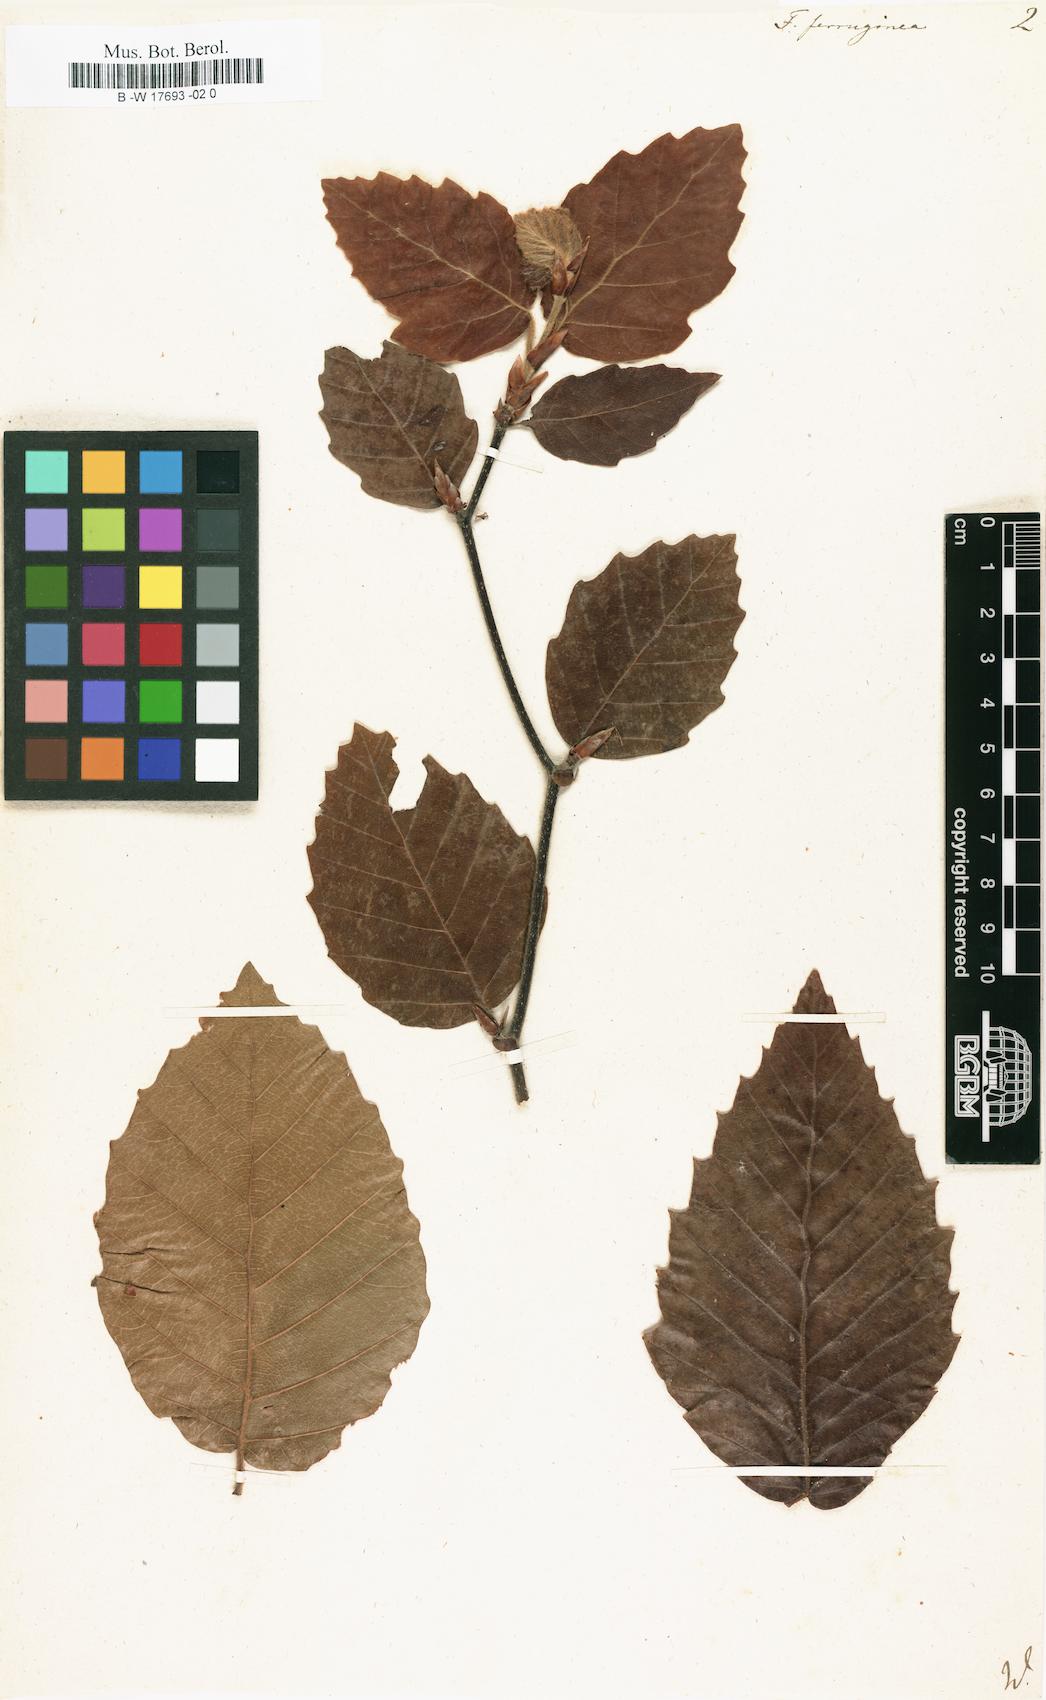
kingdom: Plantae
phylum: Tracheophyta
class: Magnoliopsida
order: Fagales
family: Fagaceae
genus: Fagus
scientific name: Fagus grandifolia
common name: American beech
